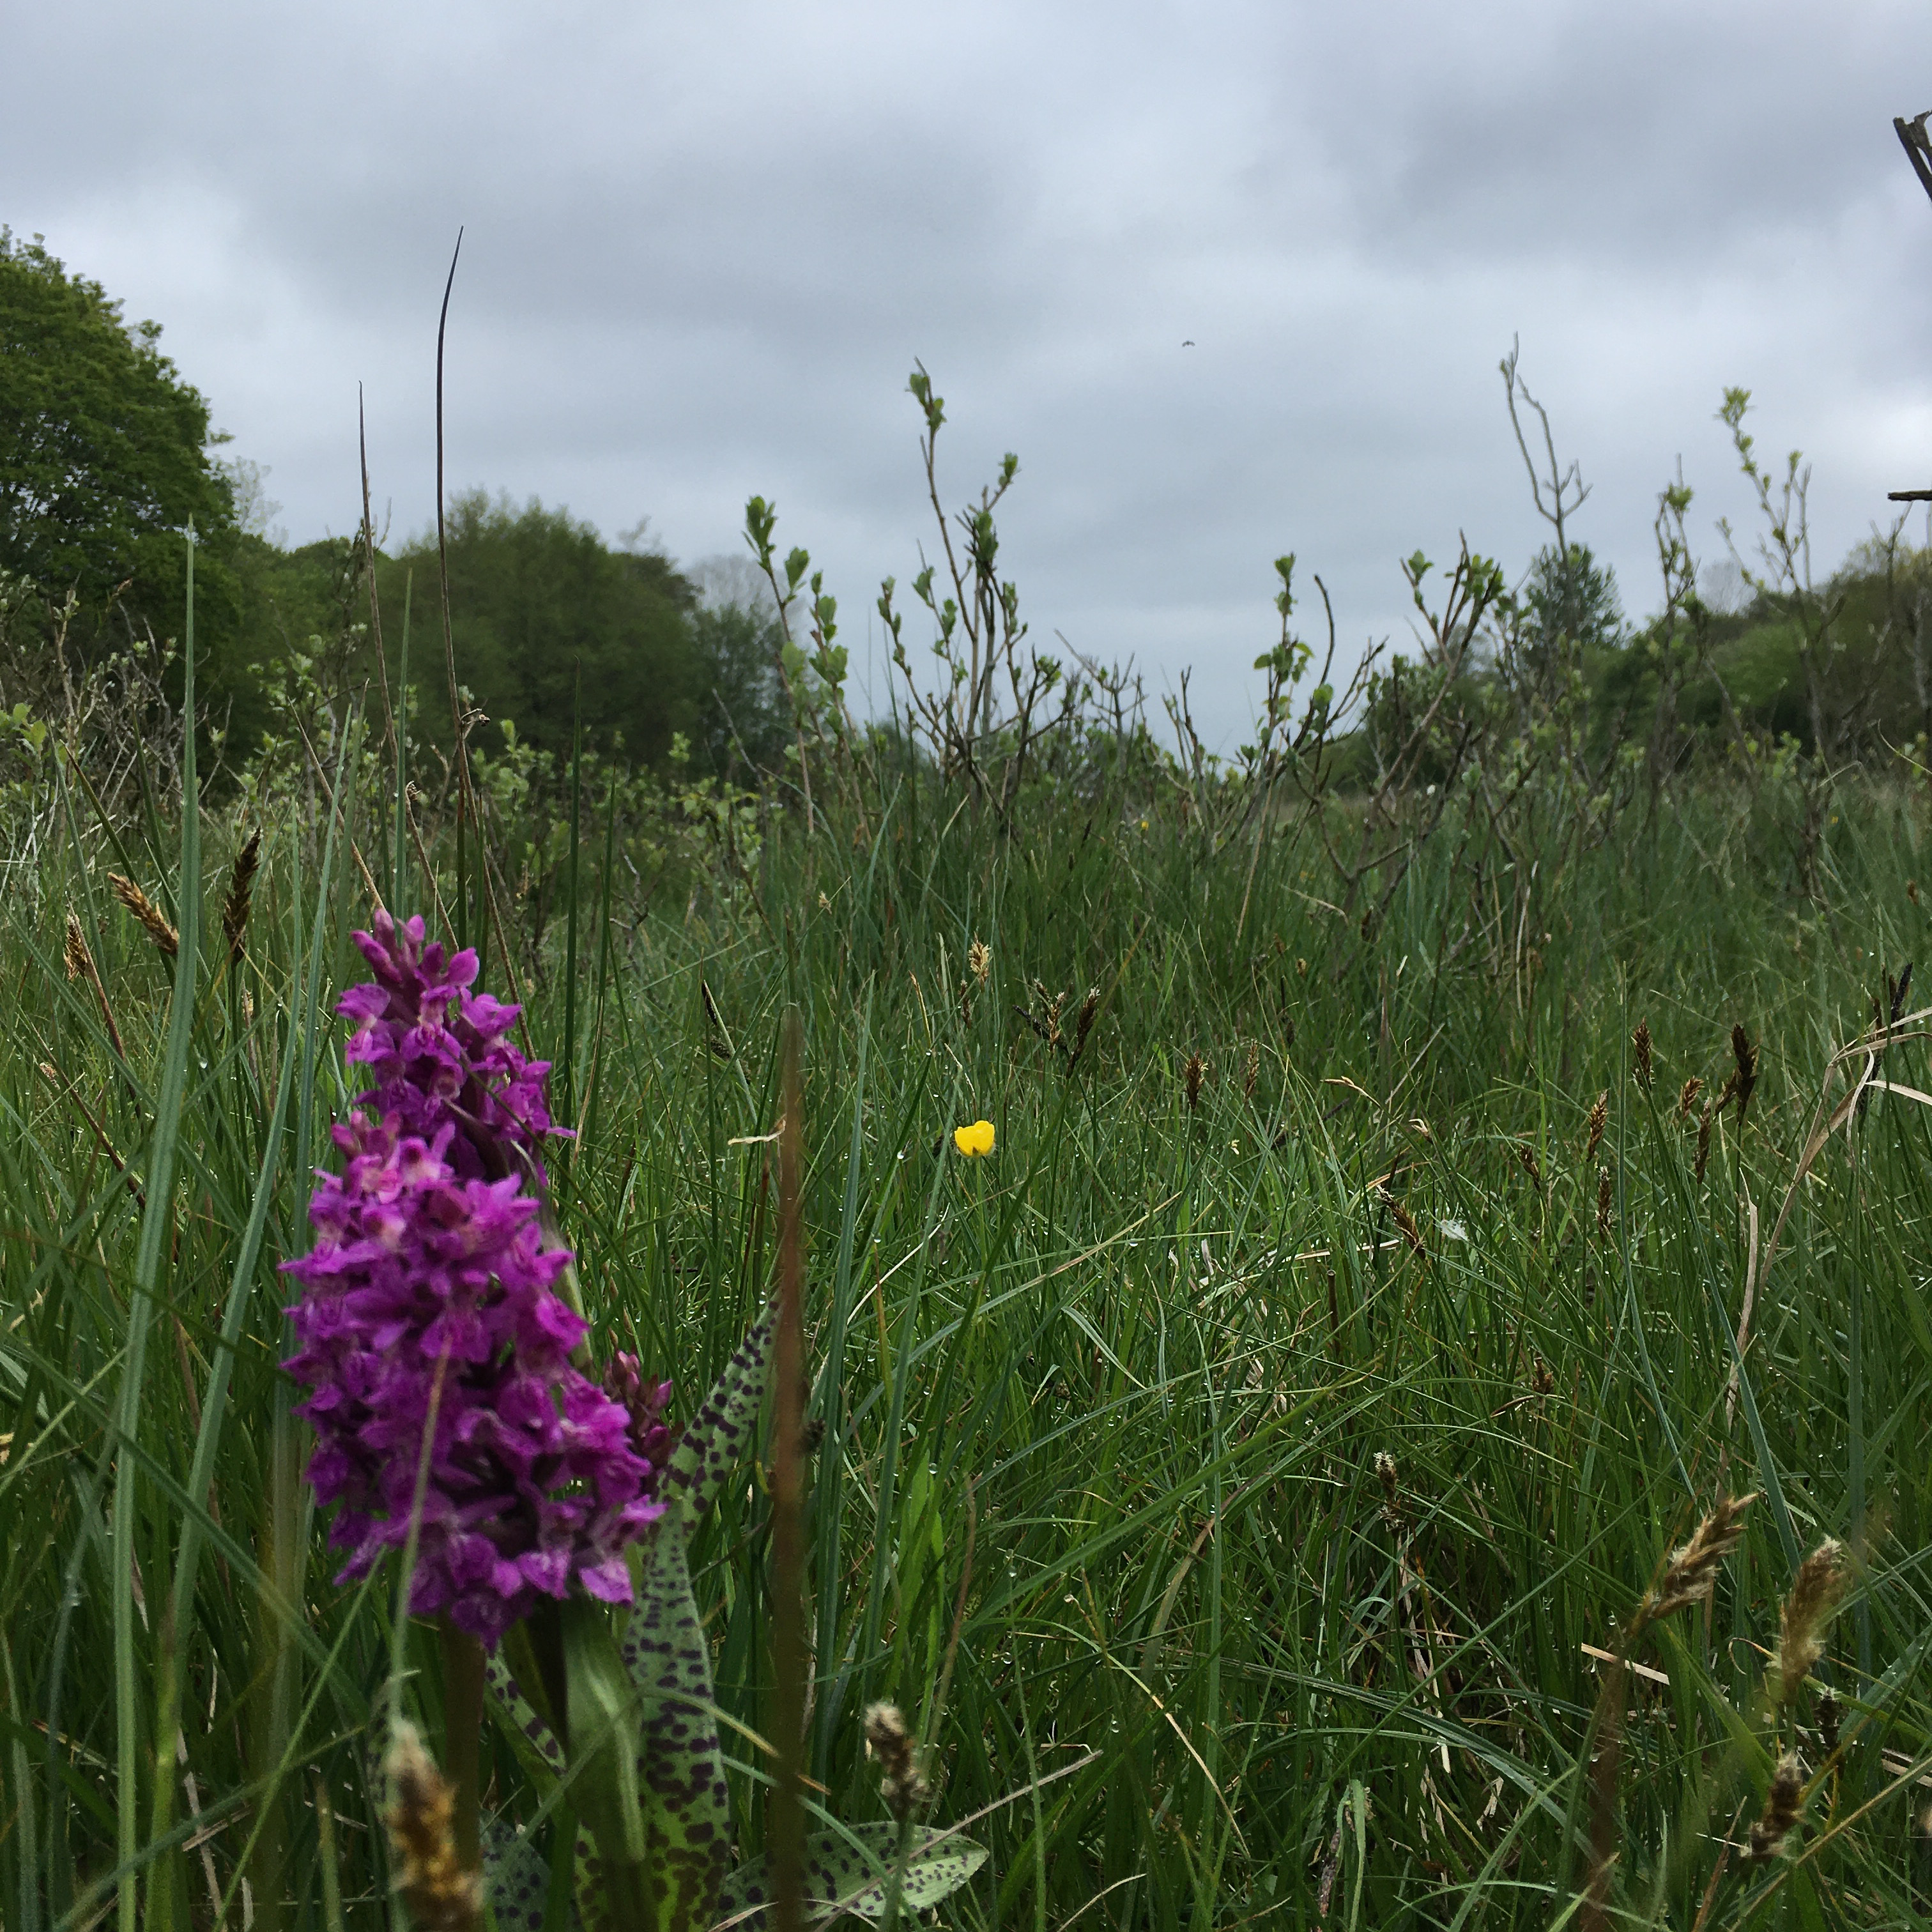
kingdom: Plantae
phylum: Tracheophyta
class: Liliopsida
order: Asparagales
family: Orchidaceae
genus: Dactylorhiza
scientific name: Dactylorhiza majalis
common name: Maj-gøgeurt
